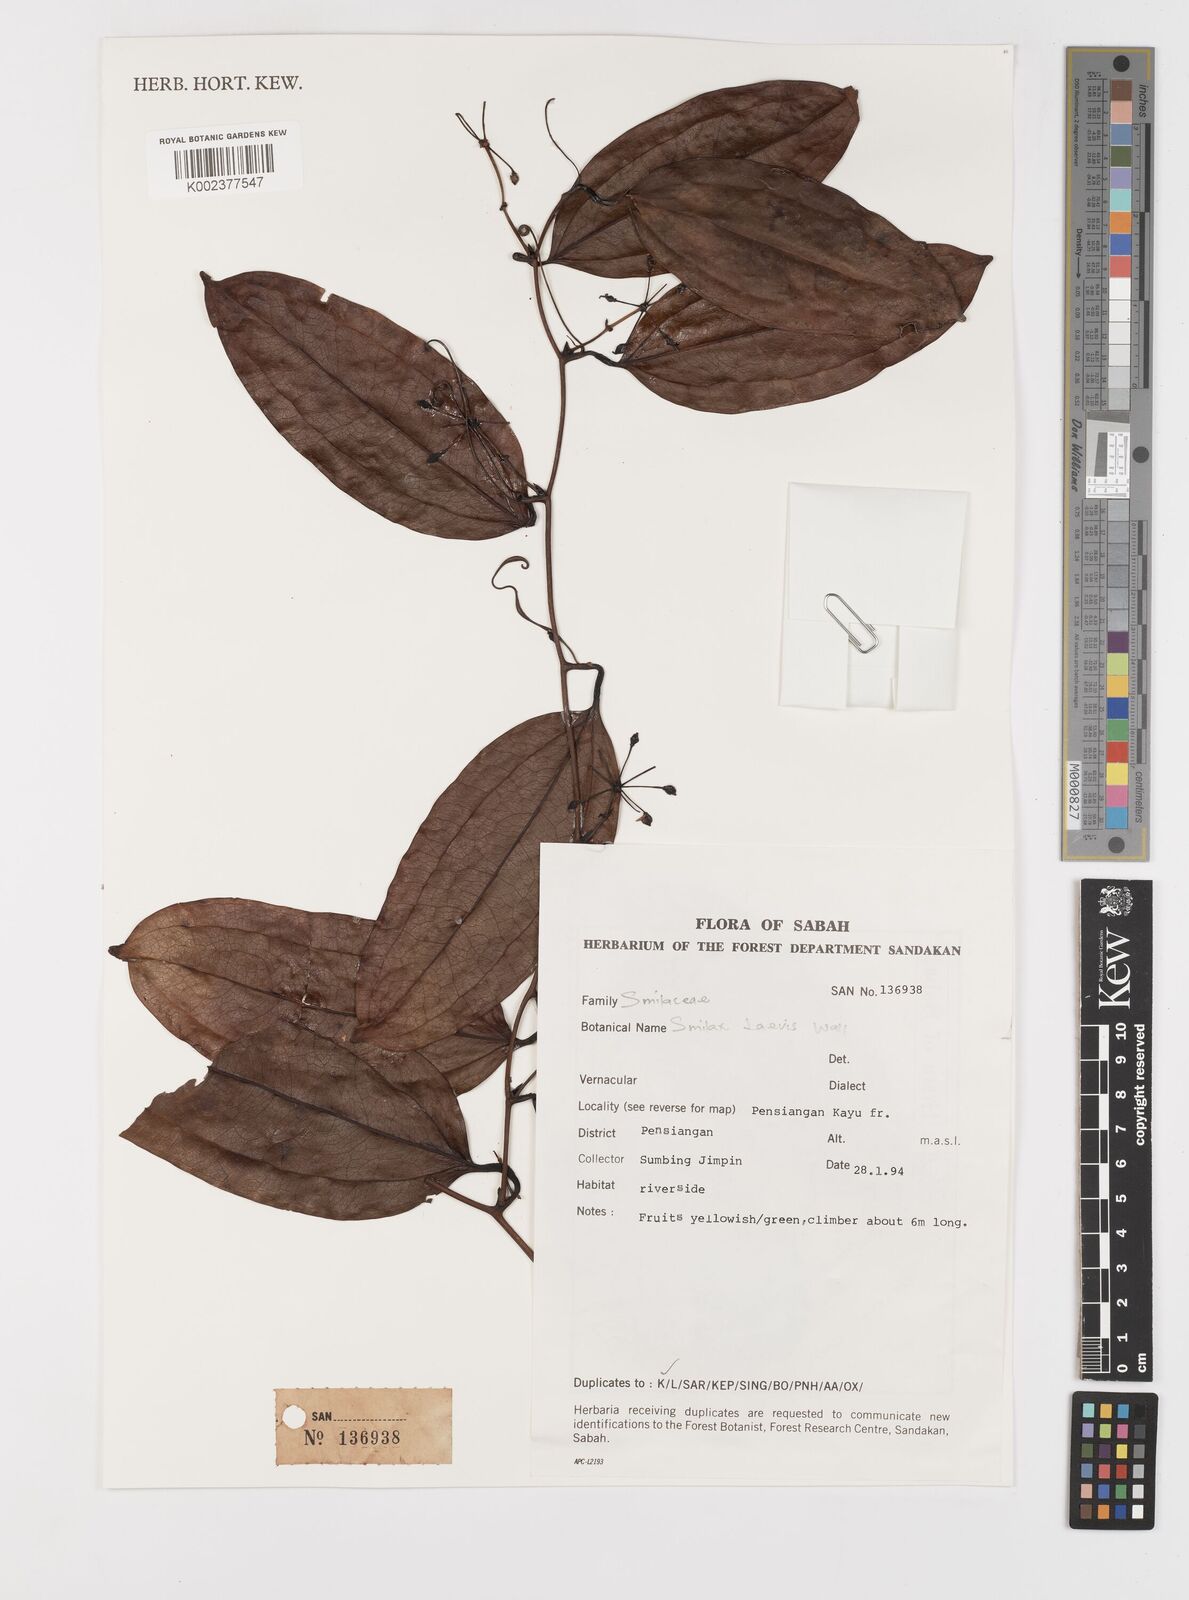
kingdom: Plantae
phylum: Tracheophyta
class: Liliopsida
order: Liliales
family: Smilacaceae
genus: Smilax
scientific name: Smilax laevis
